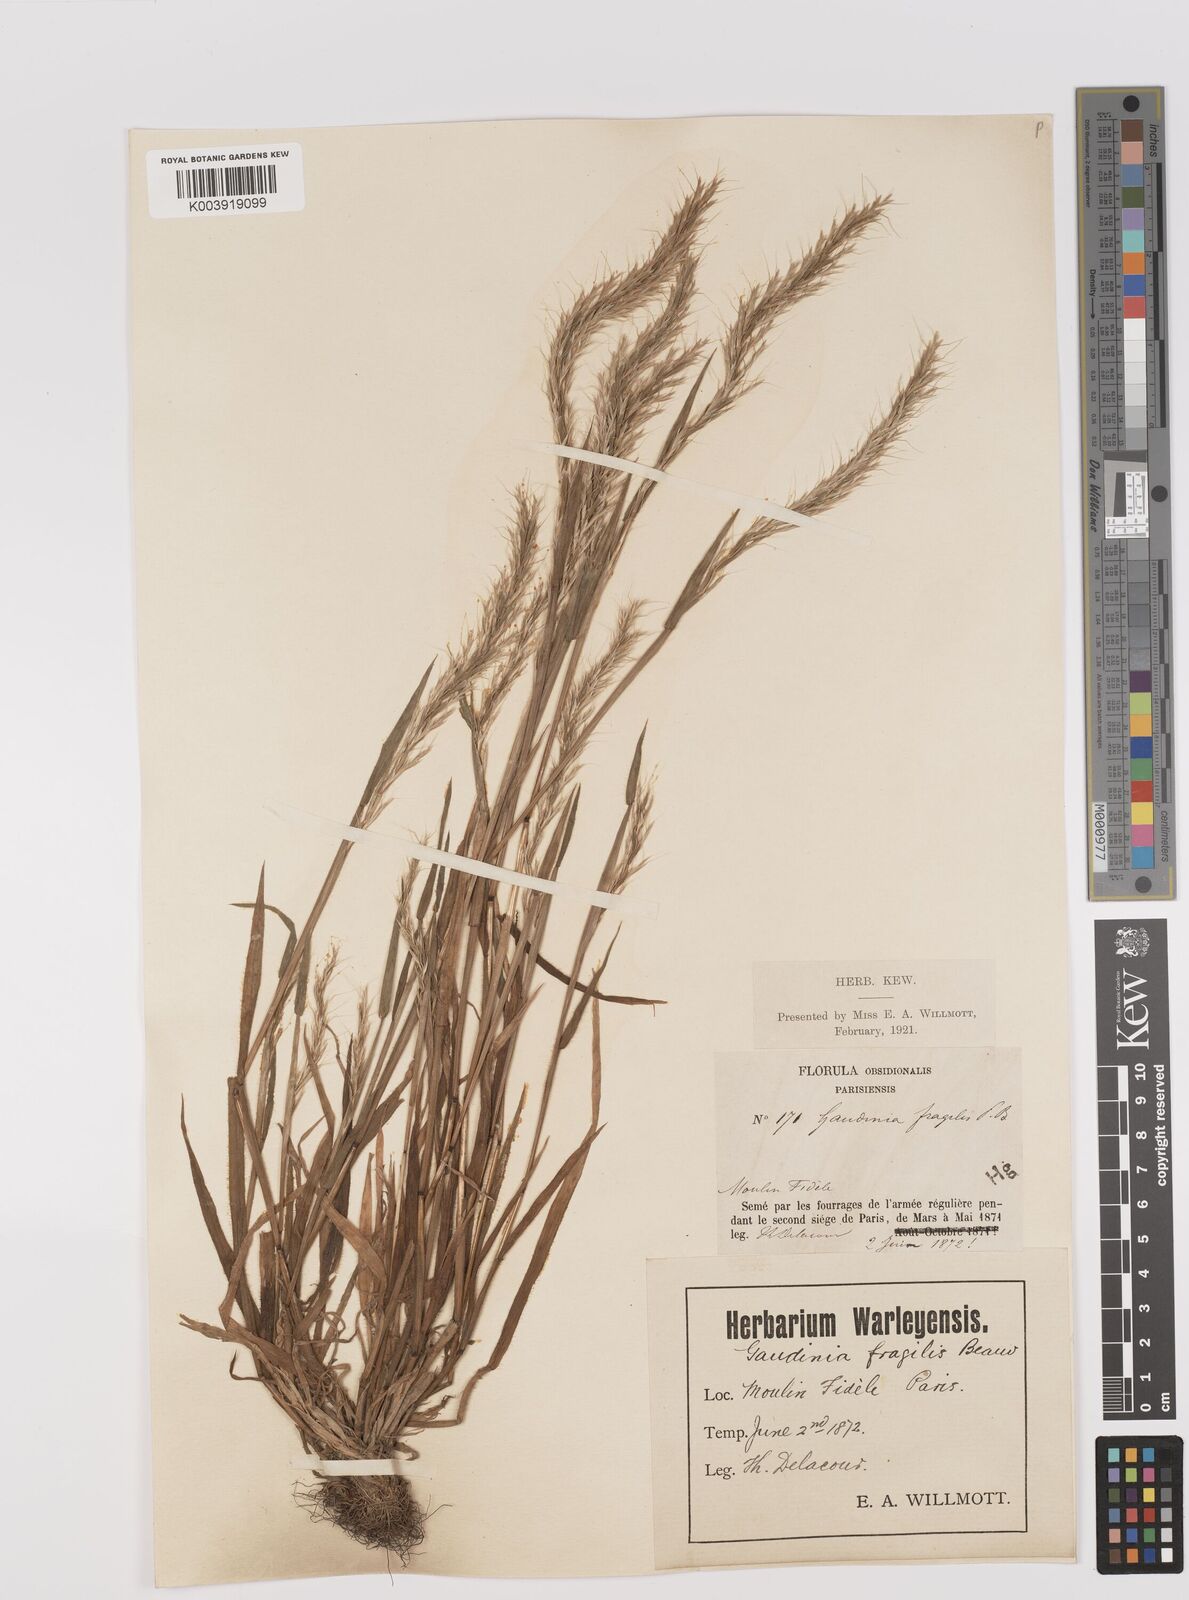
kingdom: Plantae
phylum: Tracheophyta
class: Liliopsida
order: Poales
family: Poaceae
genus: Gaudinia
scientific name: Gaudinia fragilis
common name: French oat-grass
